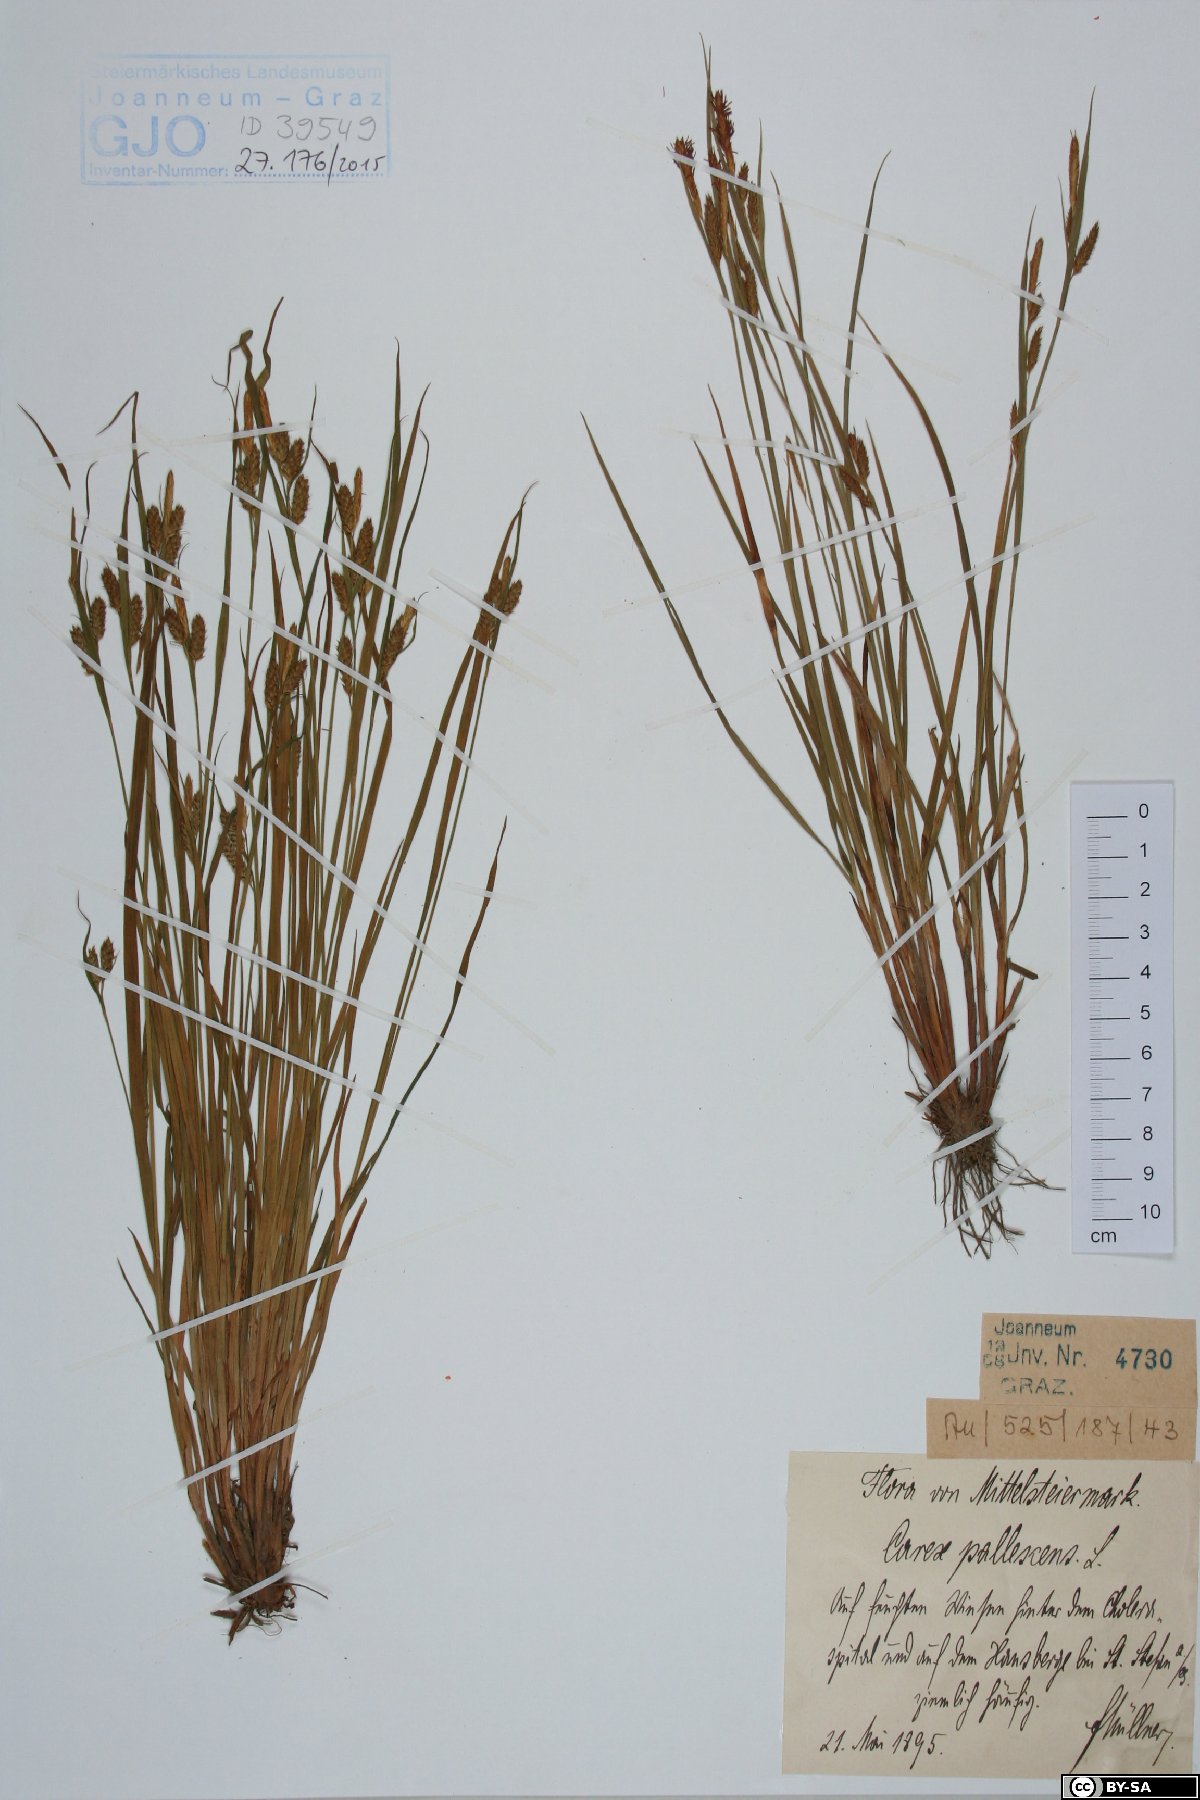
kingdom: Plantae
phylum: Tracheophyta
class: Liliopsida
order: Poales
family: Cyperaceae
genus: Carex
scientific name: Carex pallescens
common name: Pale sedge
